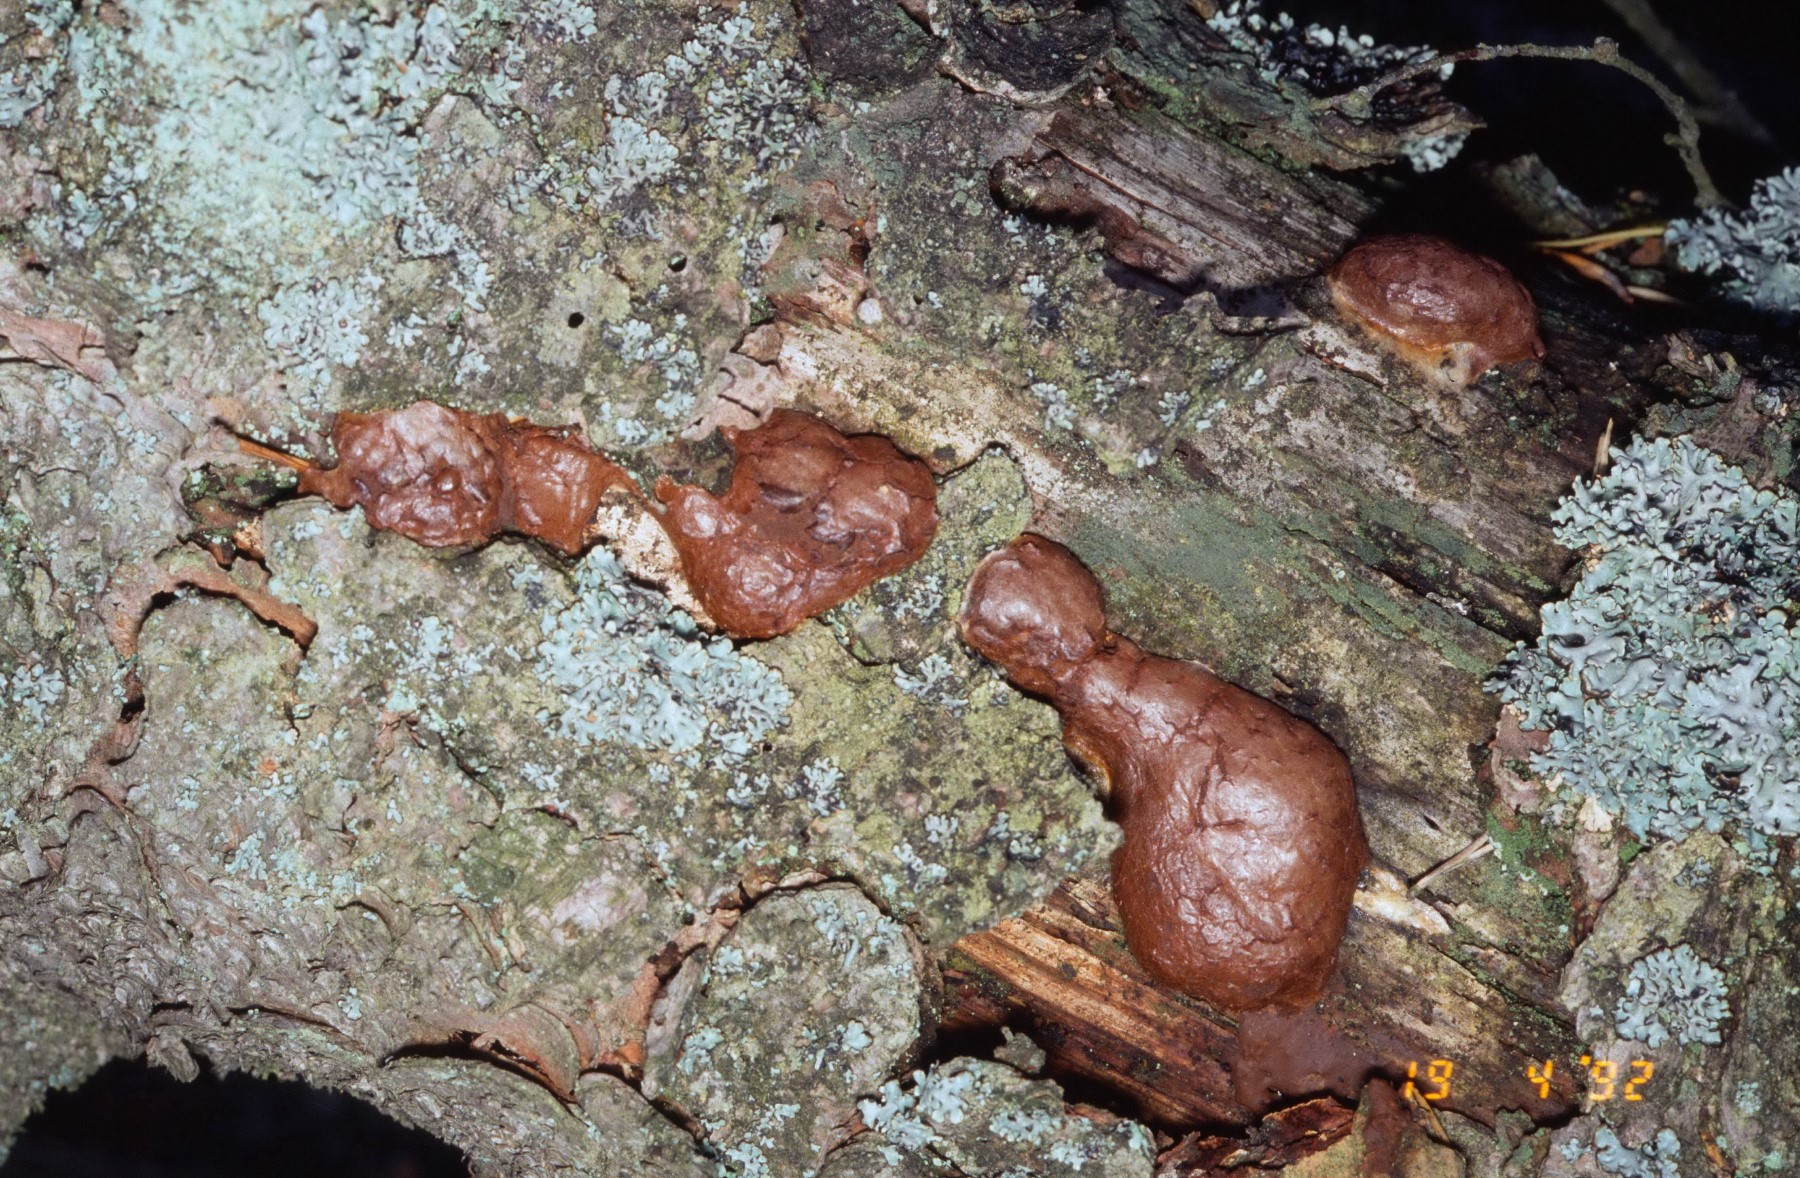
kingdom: Protozoa
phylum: Mycetozoa
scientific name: Mycetozoa
